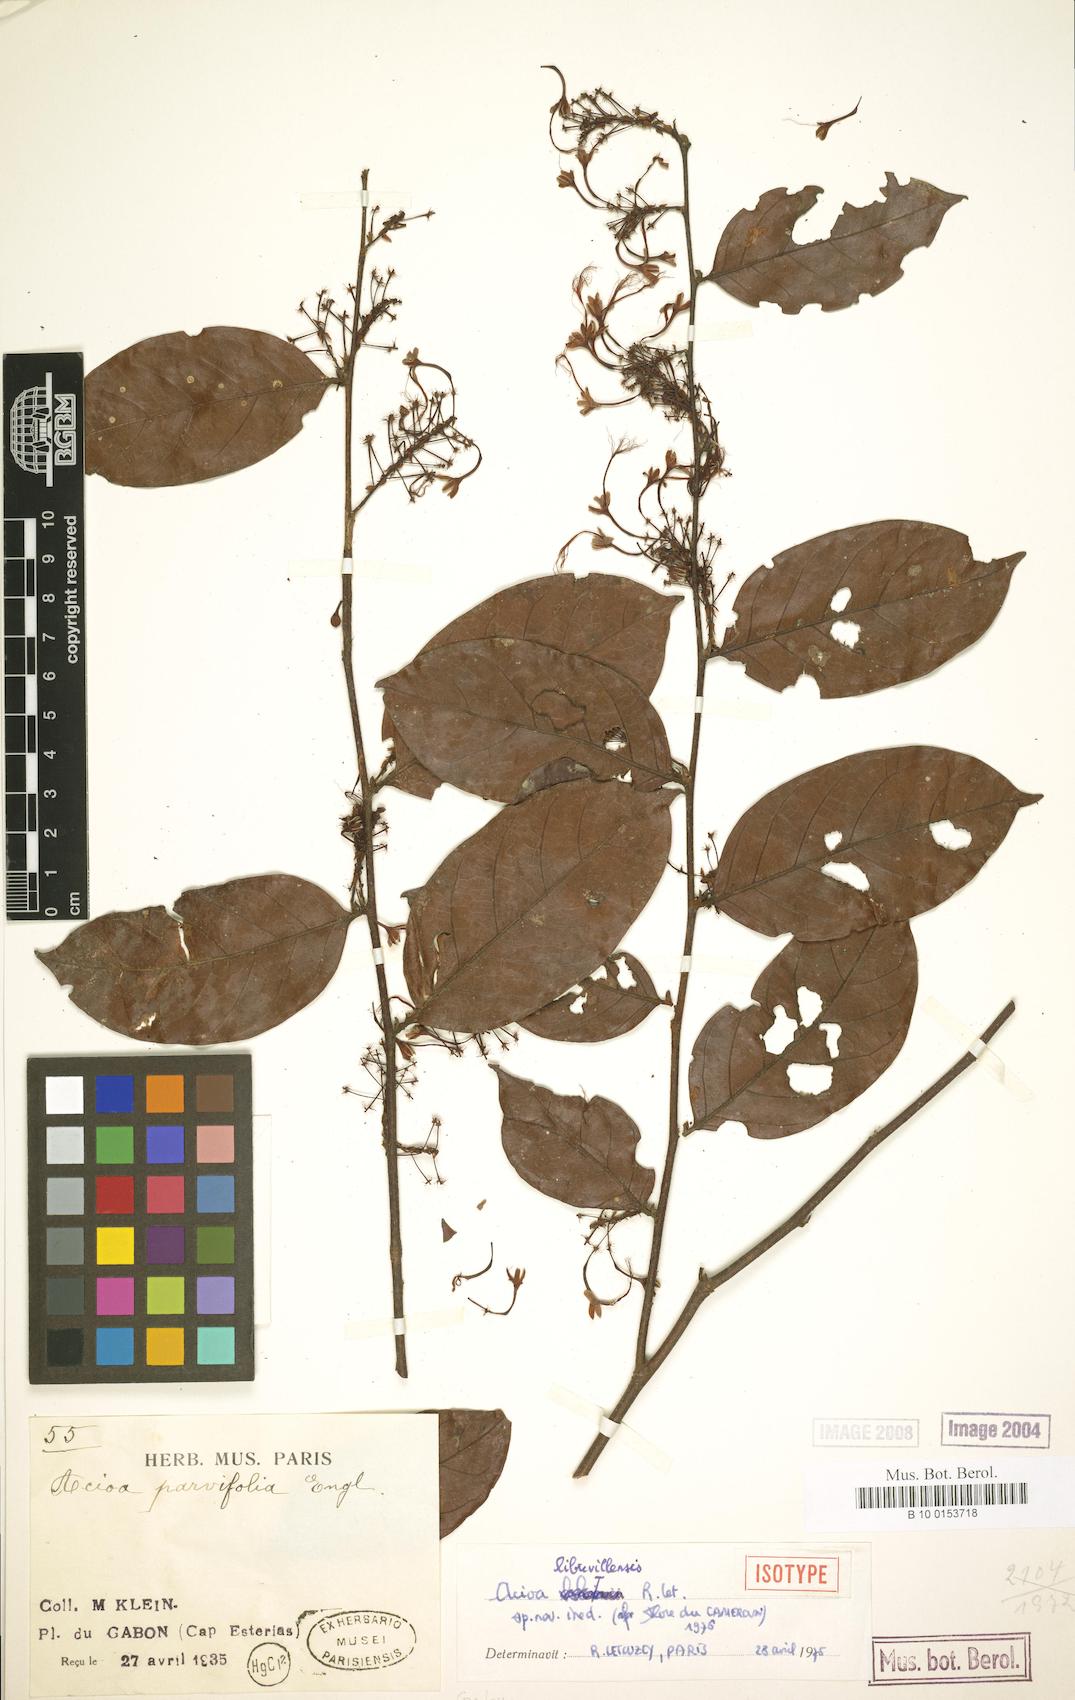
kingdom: Plantae
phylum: Tracheophyta
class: Magnoliopsida
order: Malpighiales
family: Chrysobalanaceae
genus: Dactyladenia
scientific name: Dactyladenia librevillensis
